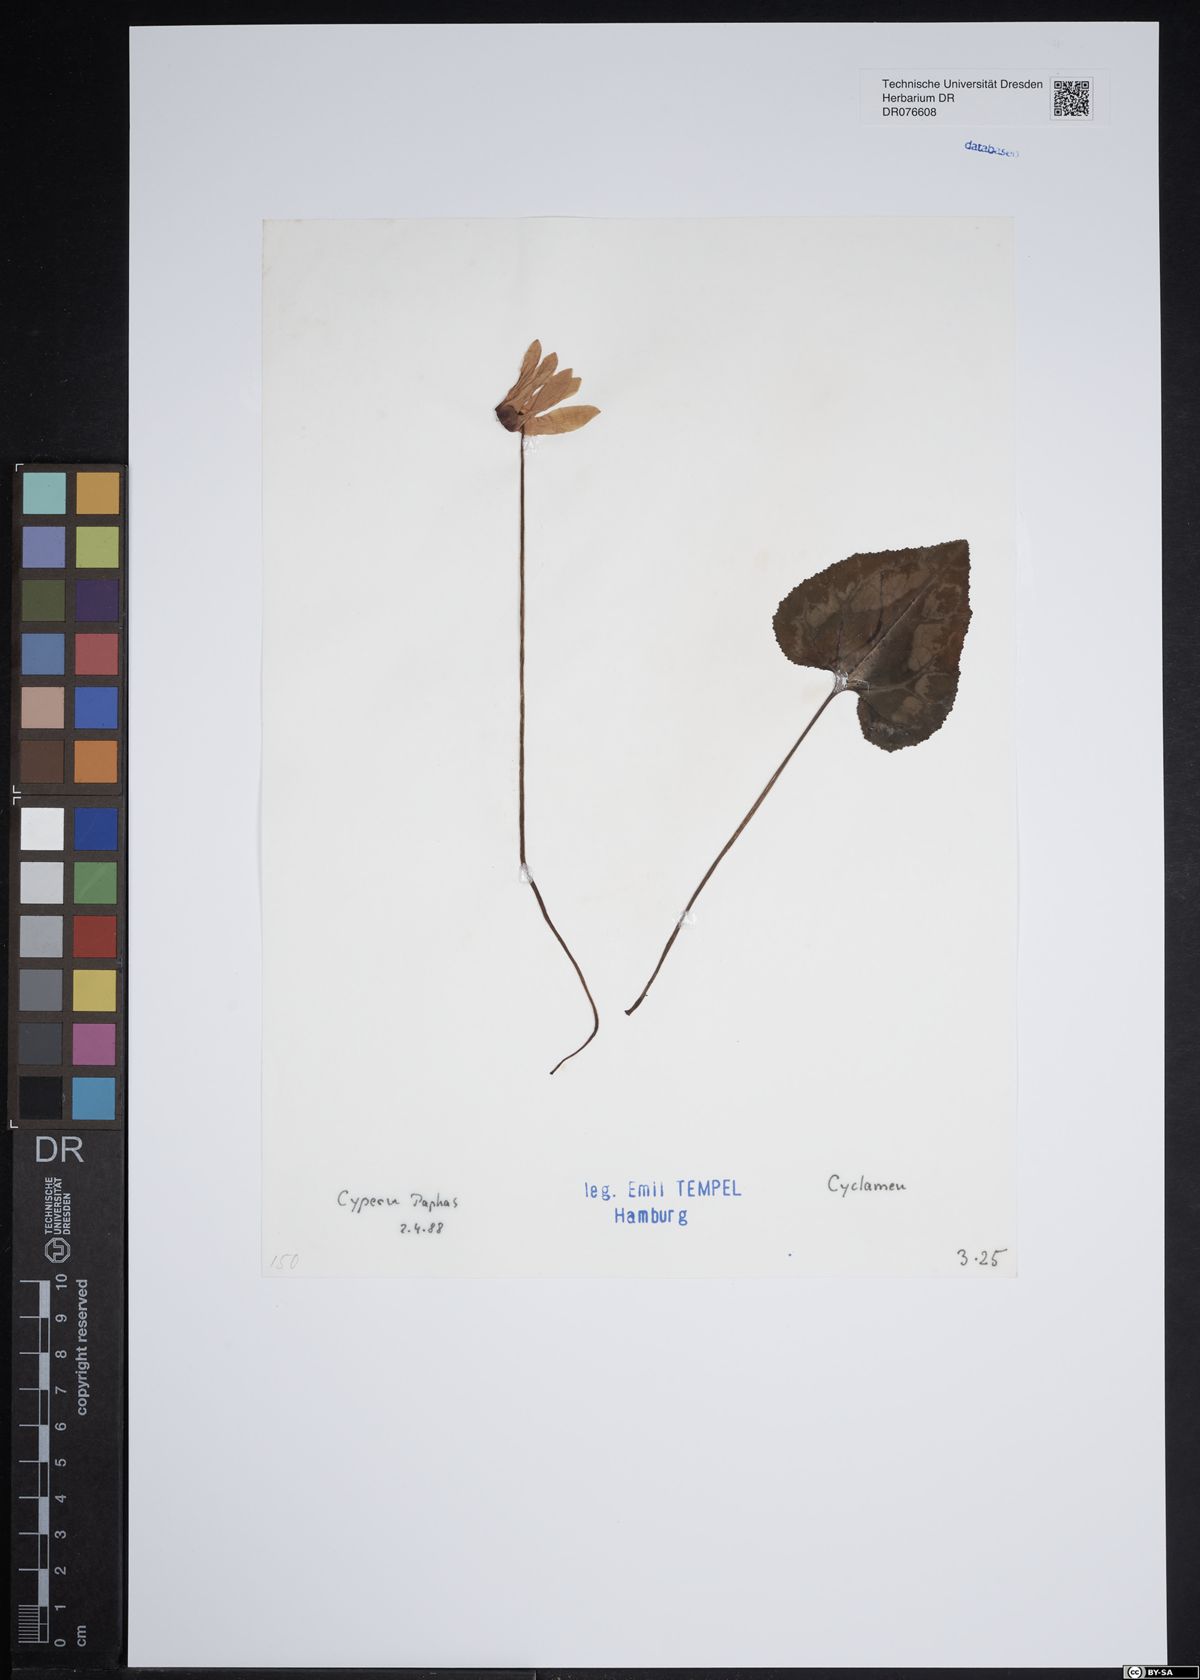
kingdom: Plantae
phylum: Tracheophyta
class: Magnoliopsida
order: Ericales
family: Primulaceae
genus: Cyclamen
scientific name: Cyclamen
